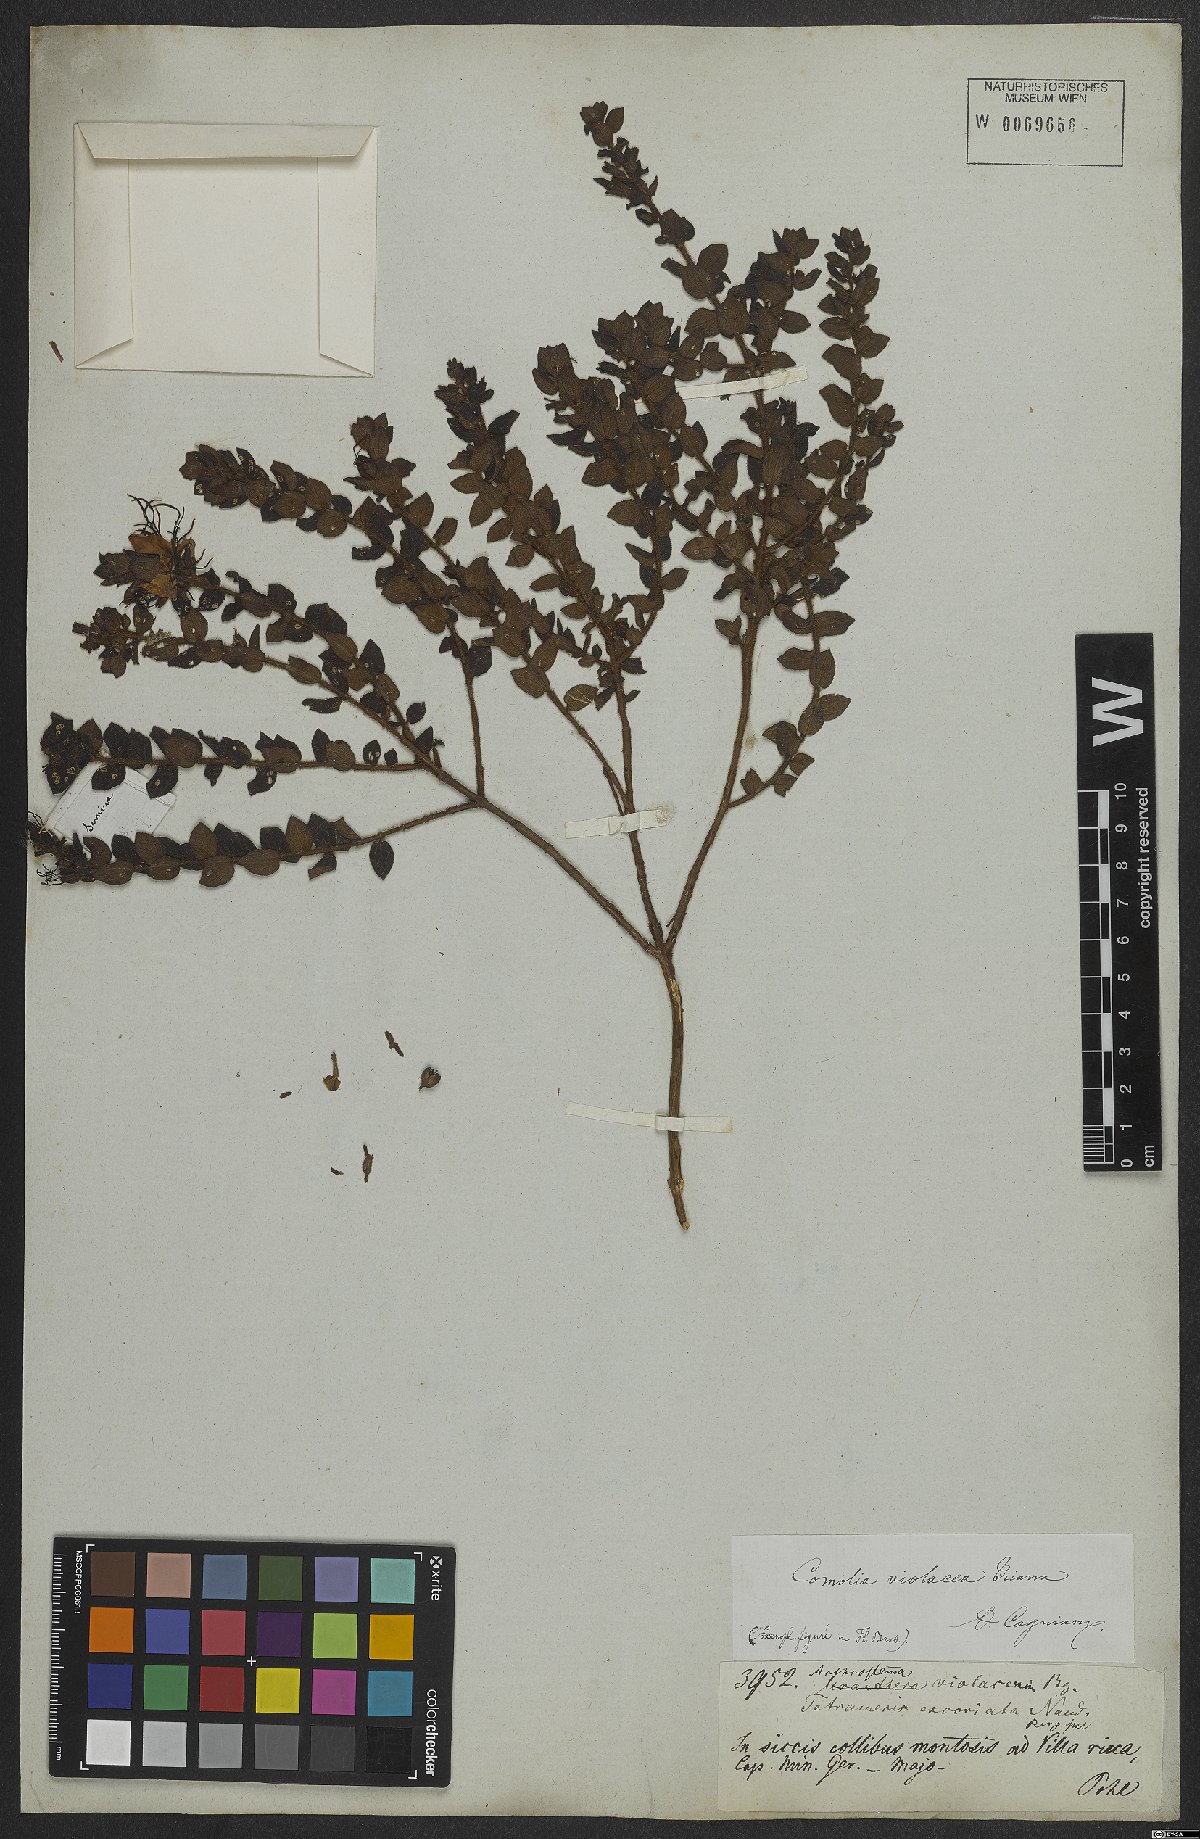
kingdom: Plantae
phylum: Tracheophyta
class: Magnoliopsida
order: Myrtales
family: Melastomataceae
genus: Miconia
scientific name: Miconia ceramicarpa
